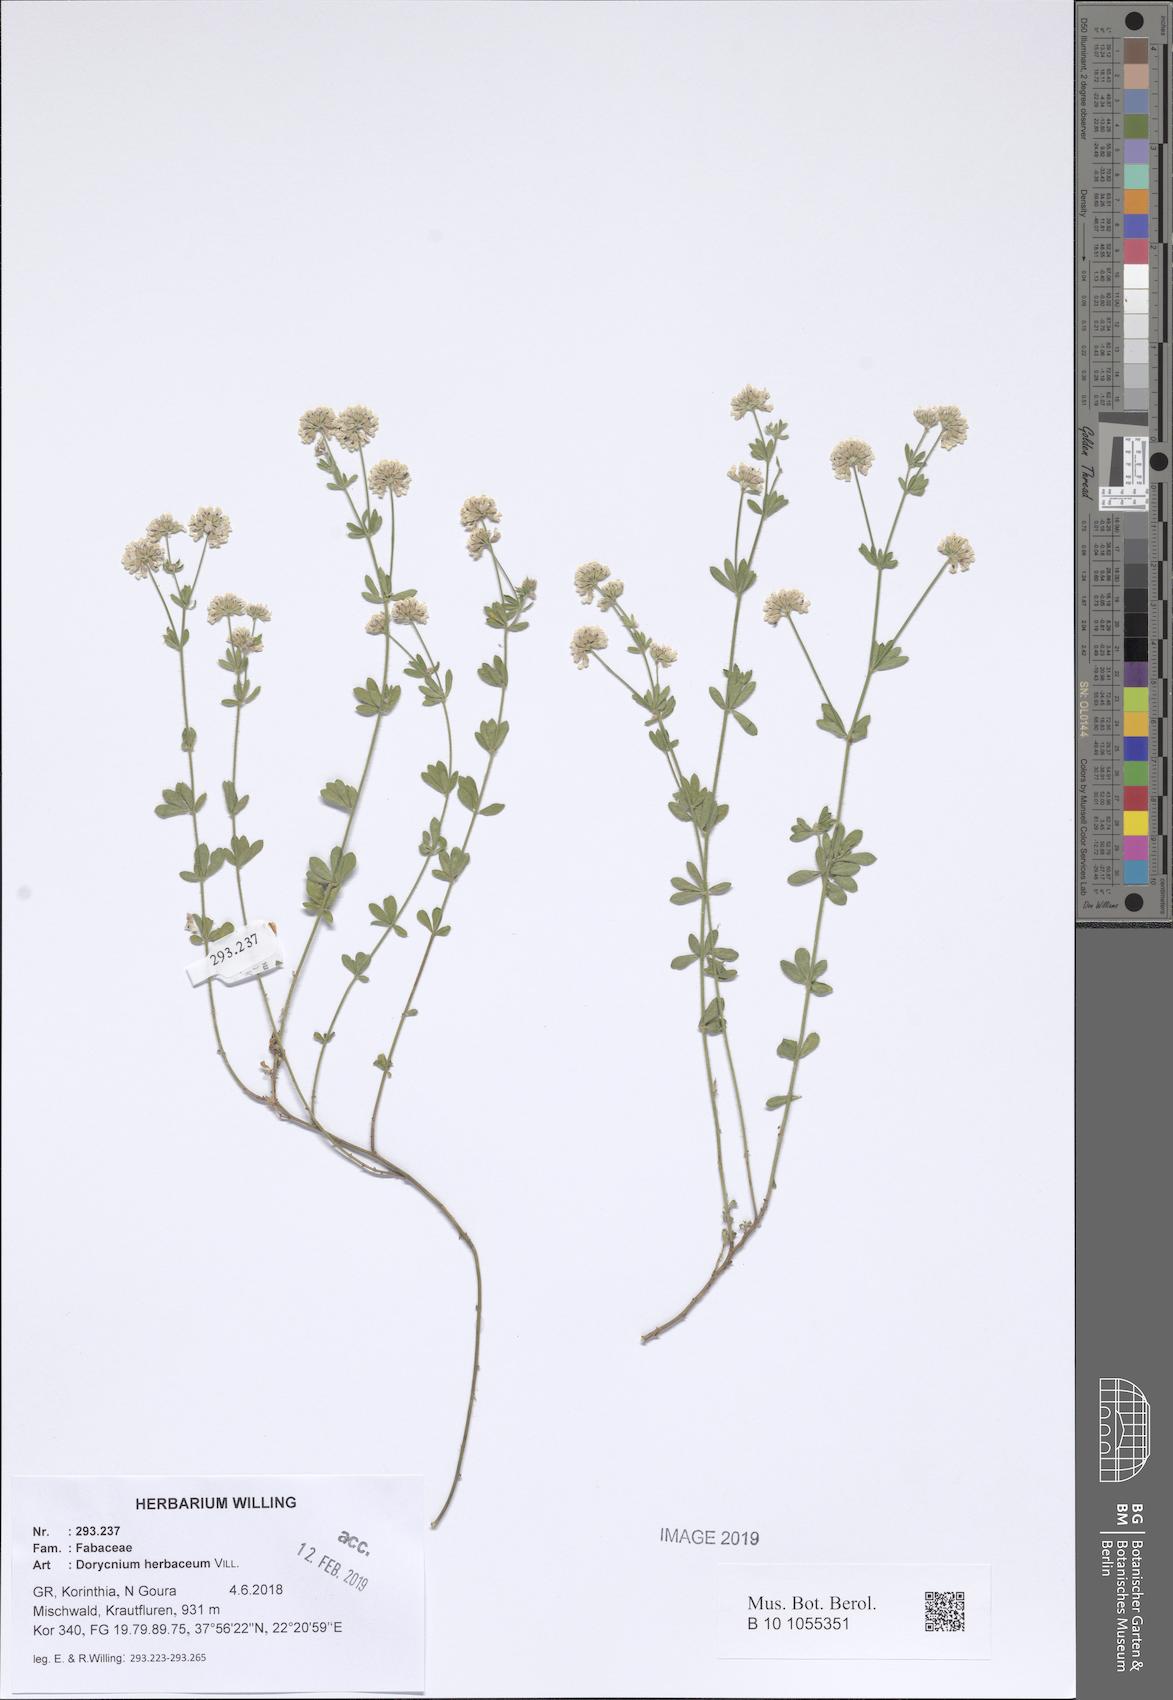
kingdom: Plantae
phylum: Tracheophyta
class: Magnoliopsida
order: Fabales
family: Fabaceae
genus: Lotus
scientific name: Lotus herbaceus
